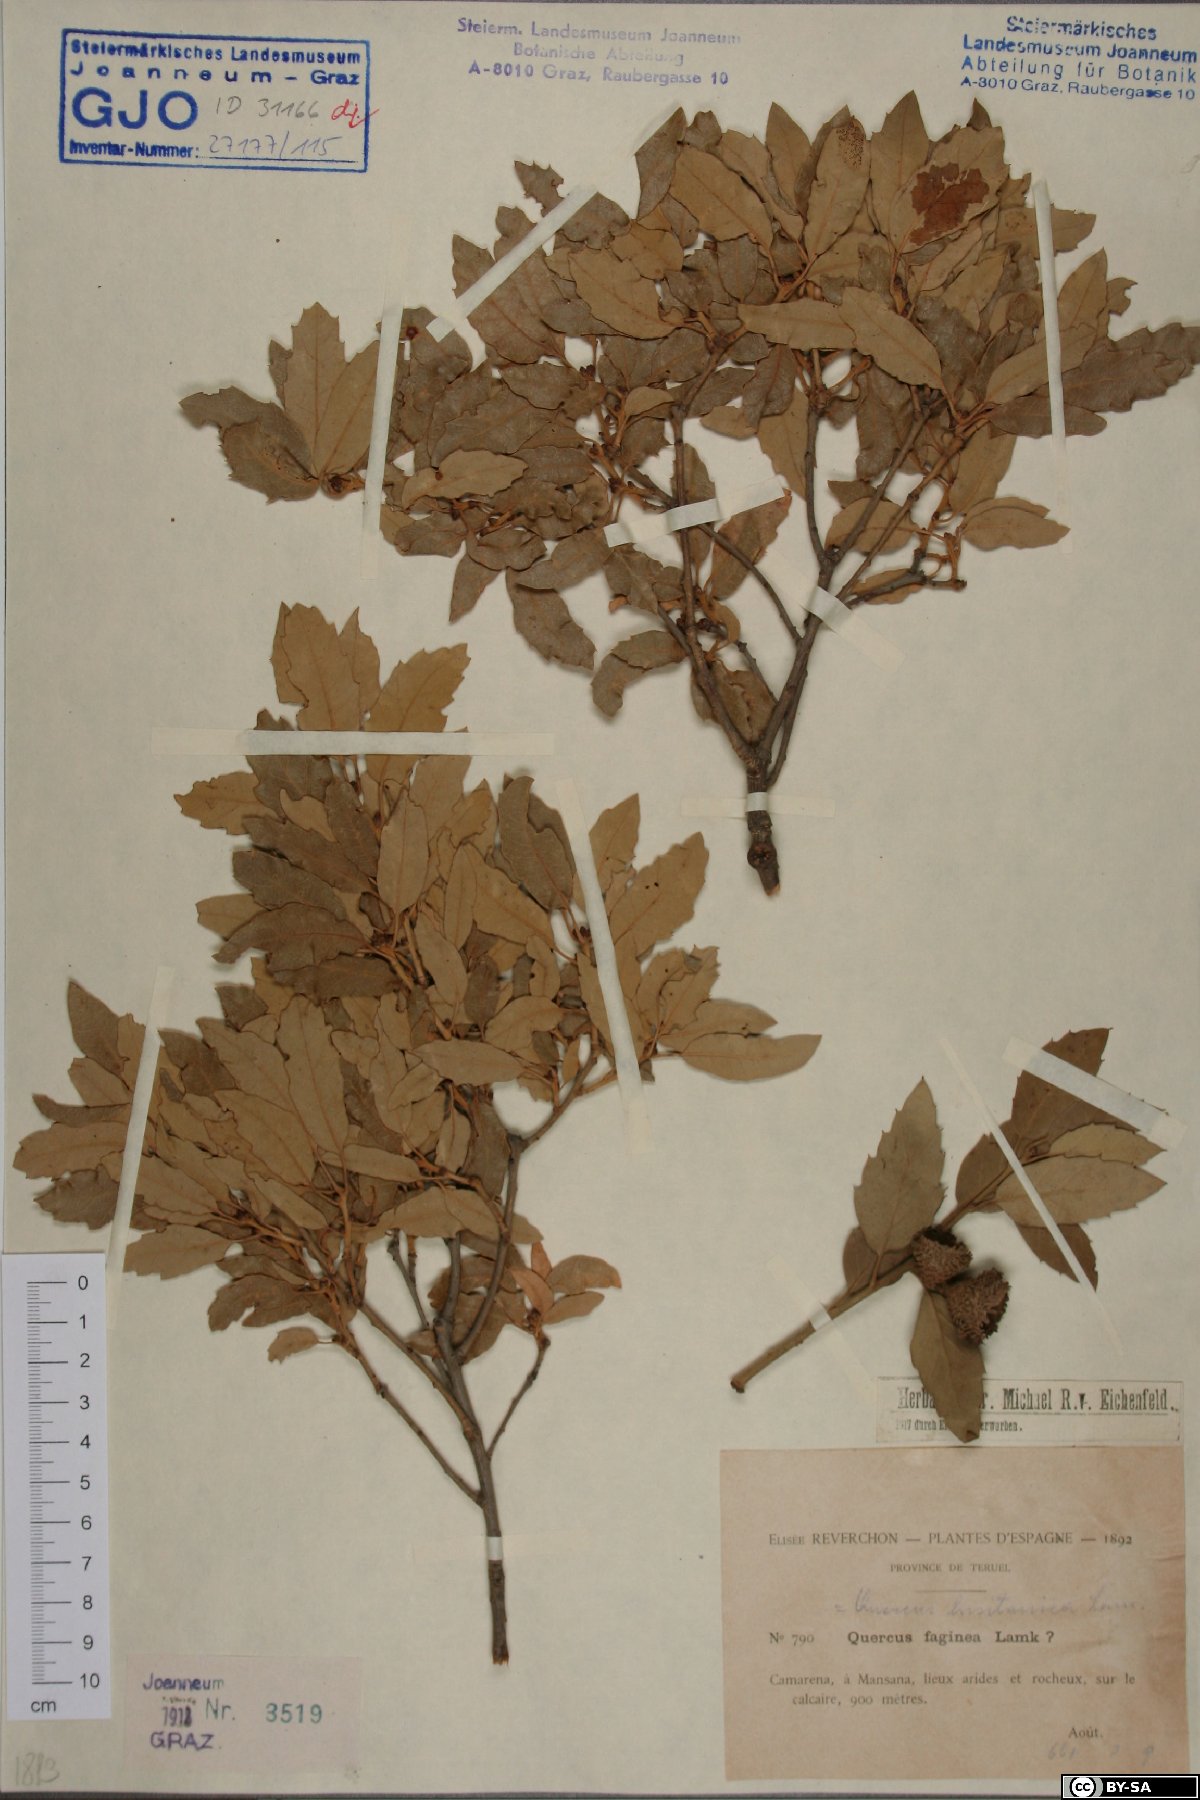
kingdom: Plantae
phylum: Tracheophyta
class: Magnoliopsida
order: Fagales
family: Fagaceae
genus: Quercus
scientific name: Quercus lusitanica
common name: Scrub gall oak
